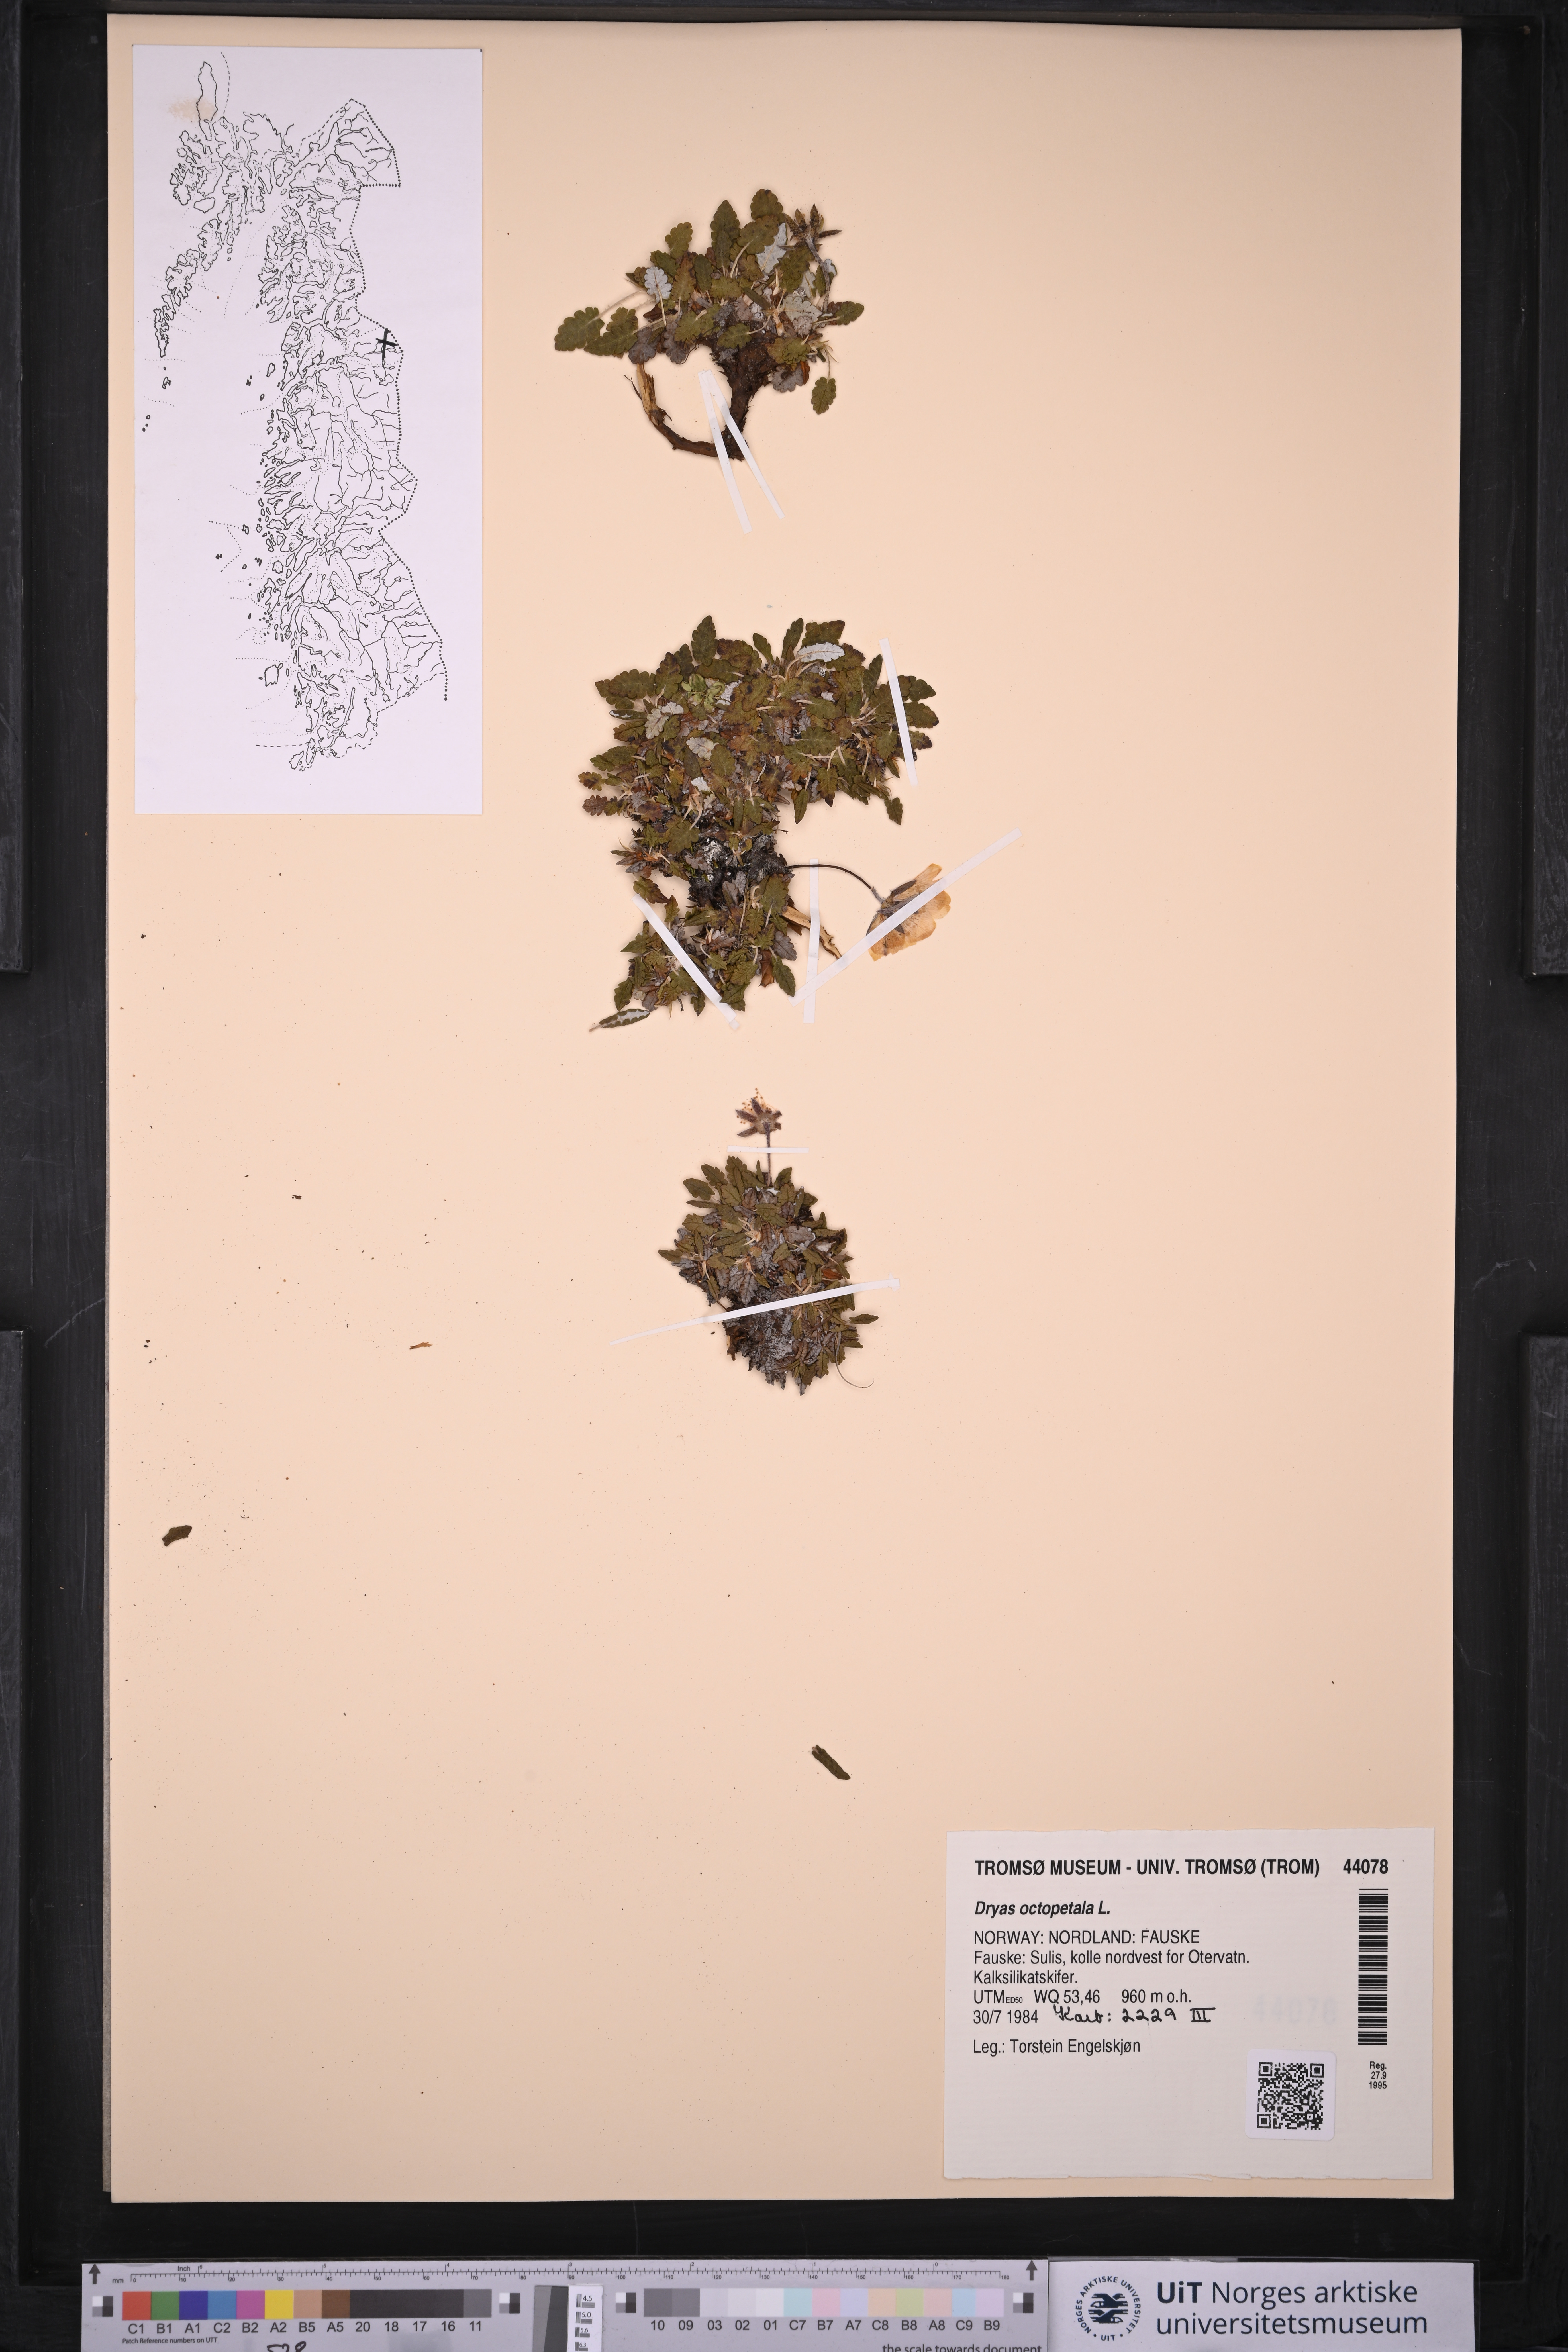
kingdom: Plantae
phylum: Tracheophyta
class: Magnoliopsida
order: Rosales
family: Rosaceae
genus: Dryas
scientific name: Dryas octopetala
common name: Eight-petal mountain-avens
